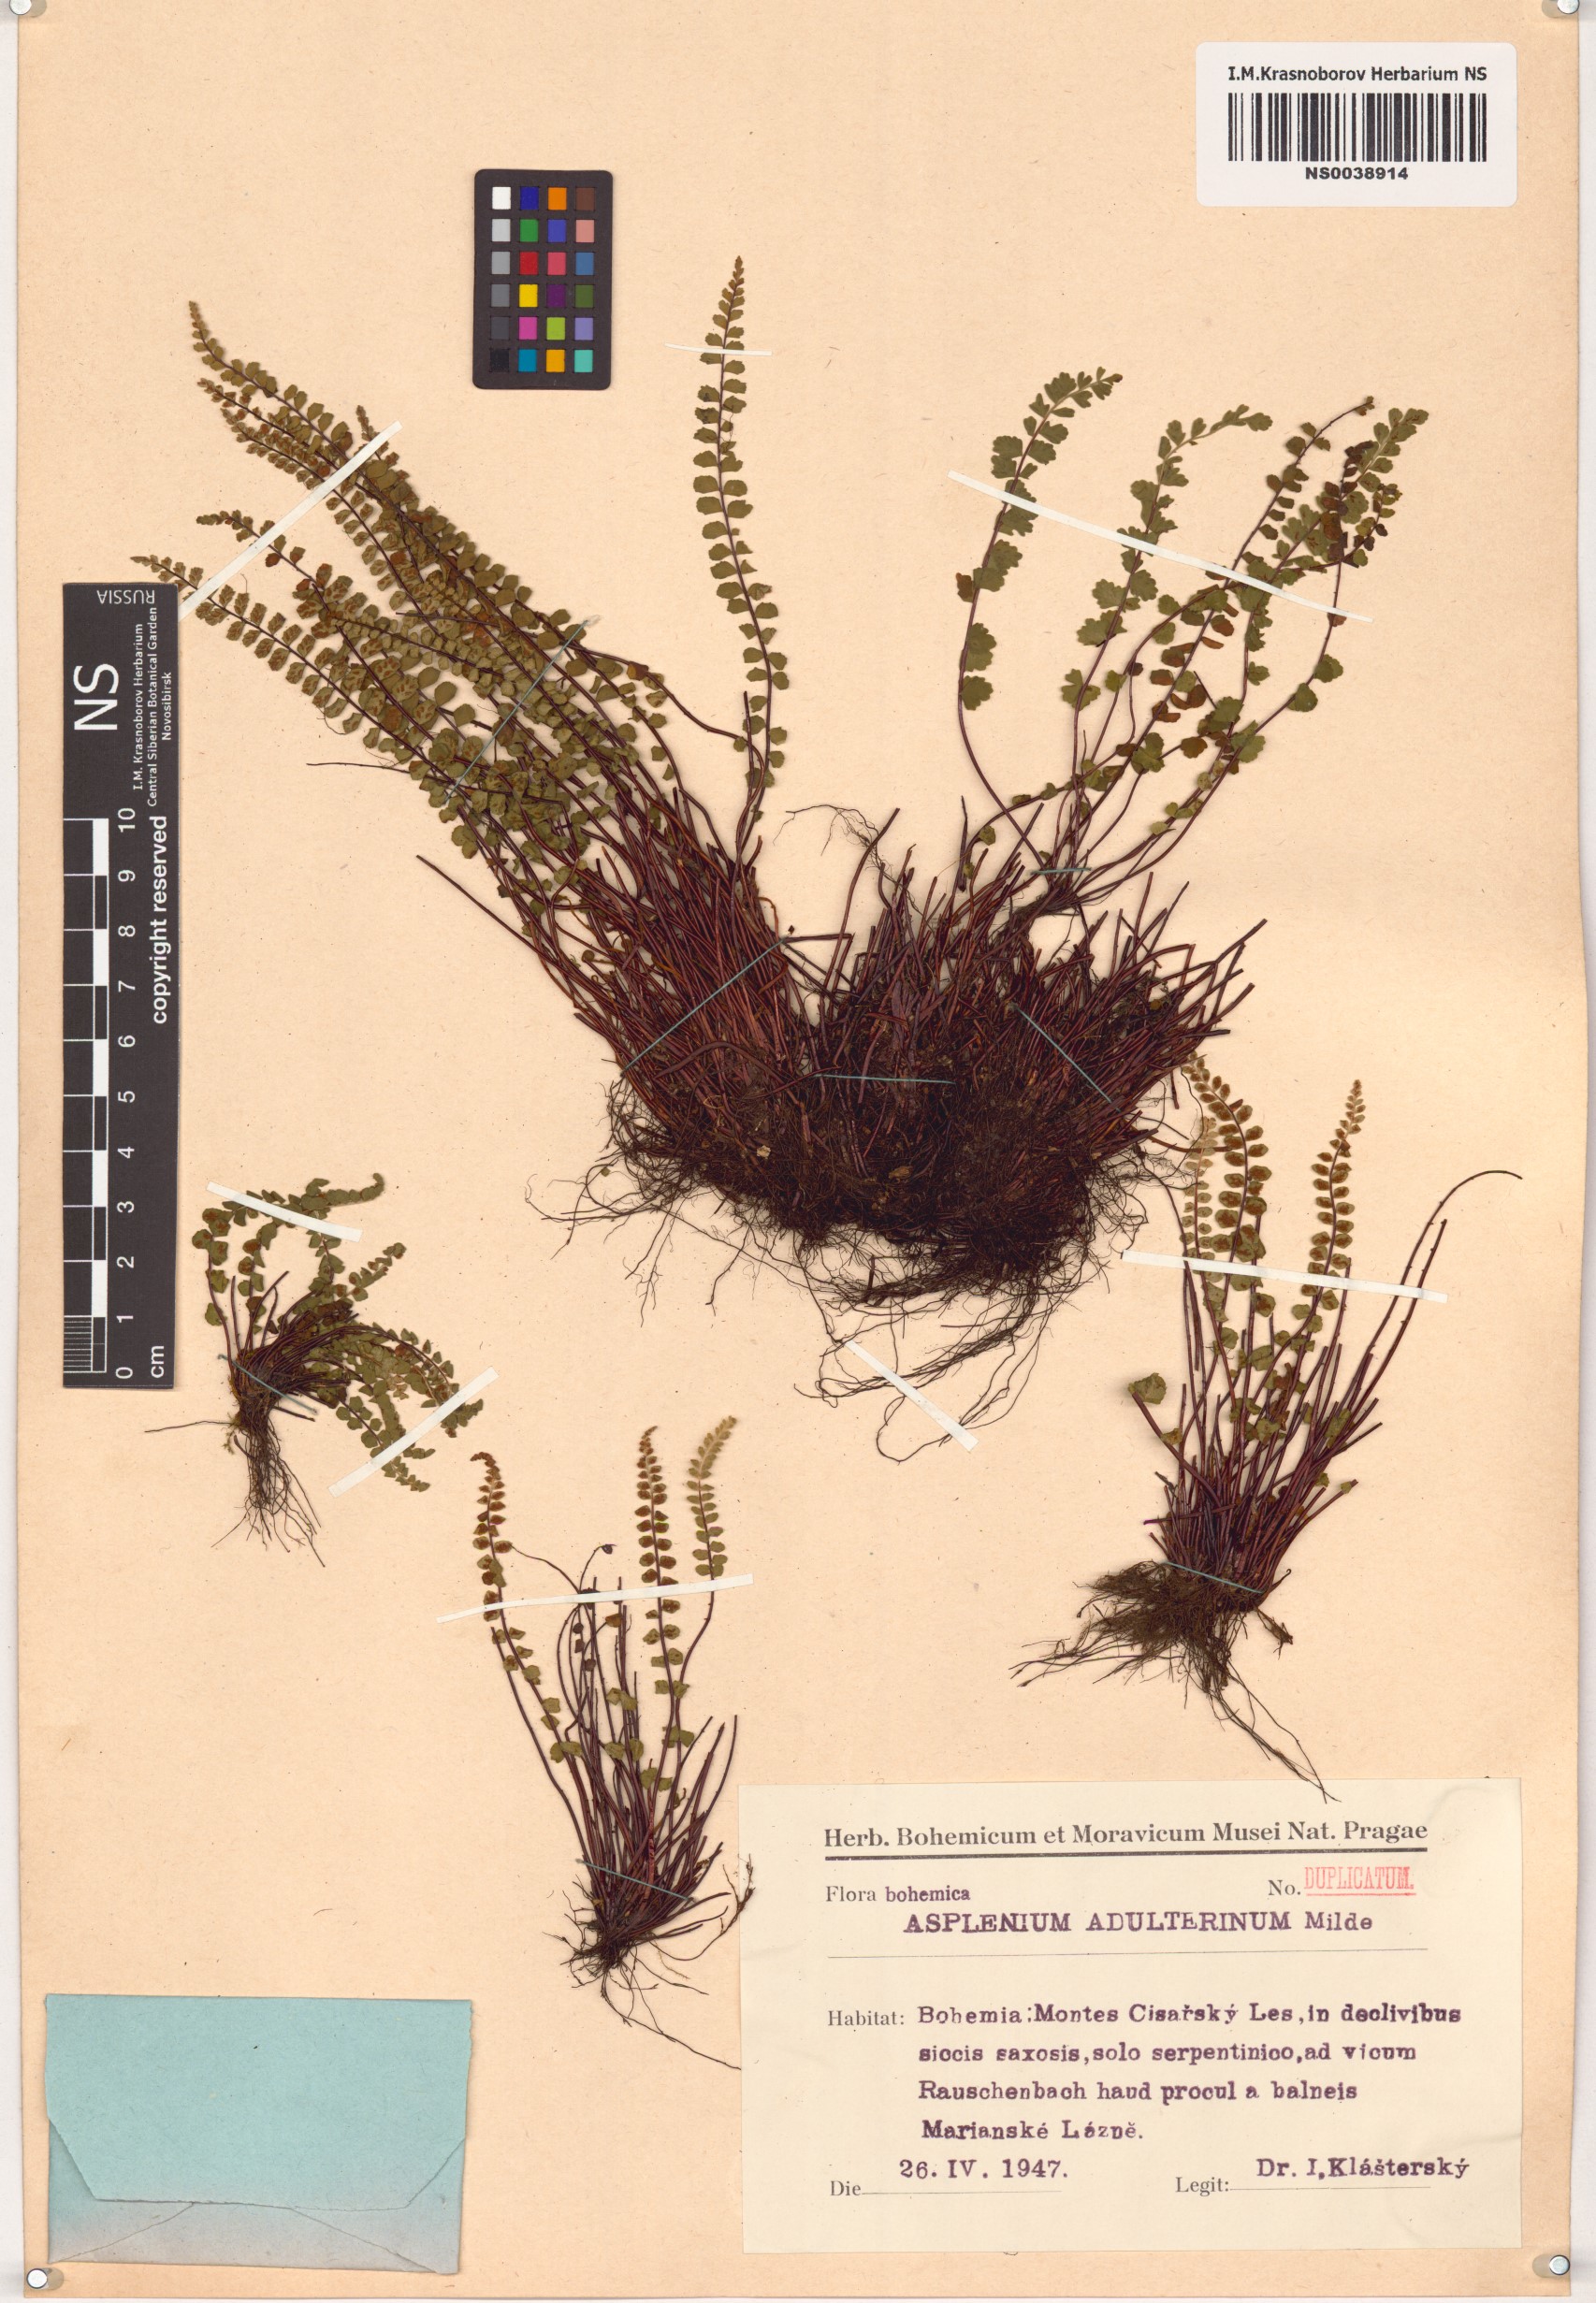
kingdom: Plantae
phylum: Tracheophyta
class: Polypodiopsida
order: Polypodiales
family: Aspleniaceae
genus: Asplenium
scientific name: Asplenium adulterinum
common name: Adulterated spleenwort
